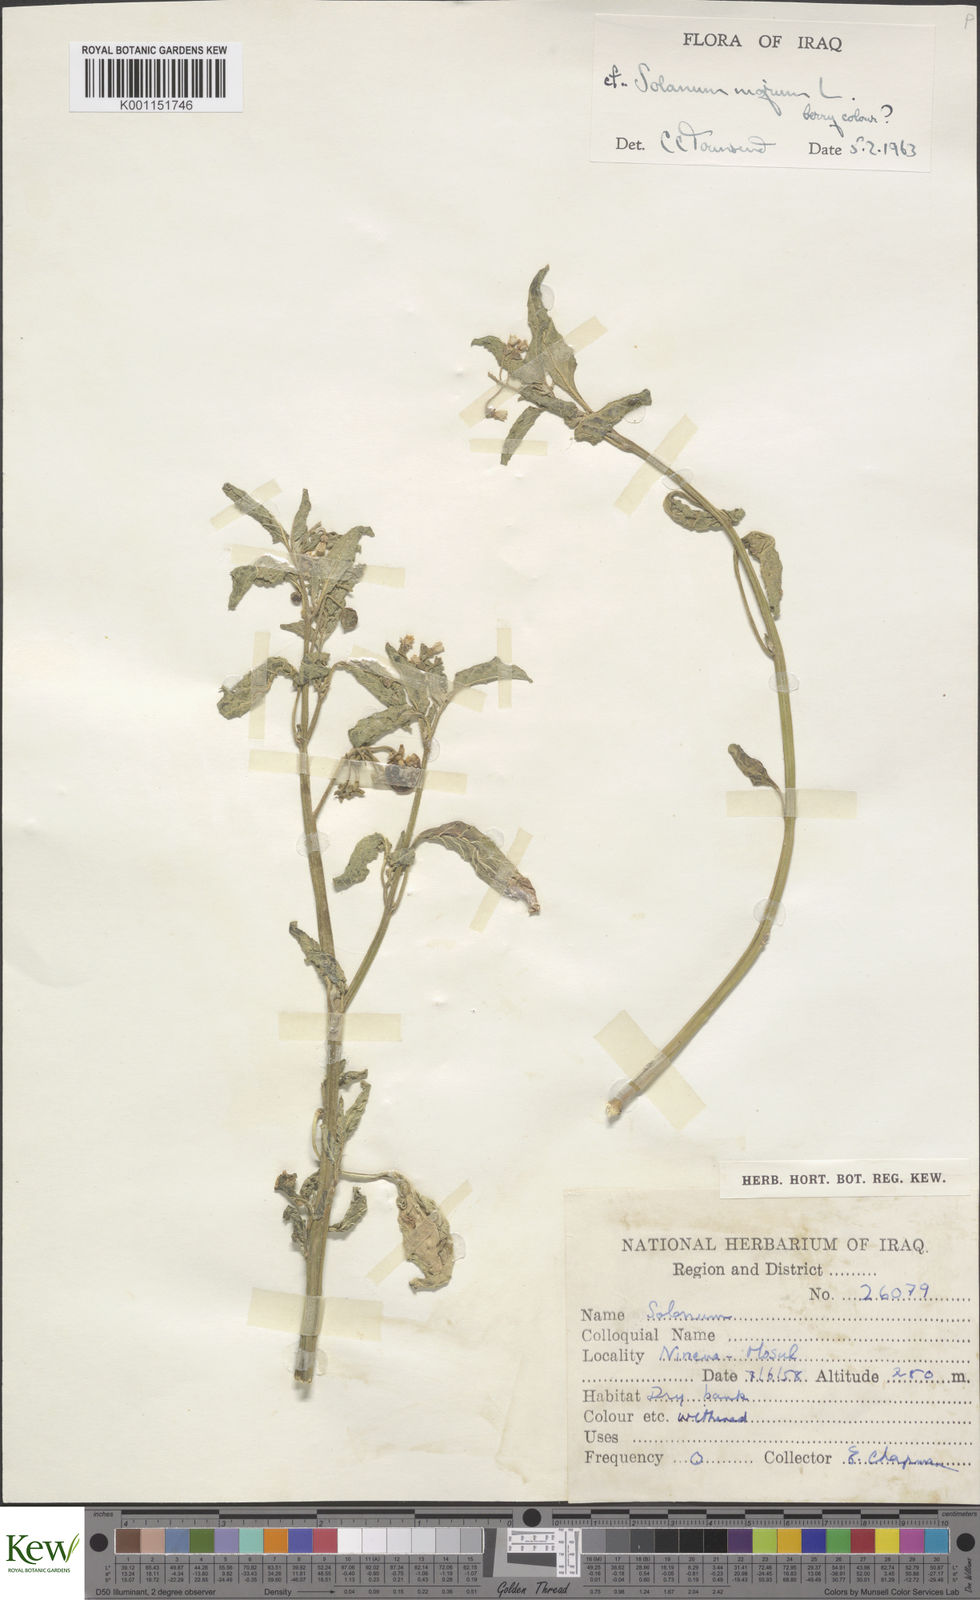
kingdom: Plantae
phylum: Tracheophyta
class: Magnoliopsida
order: Solanales
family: Solanaceae
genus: Solanum
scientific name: Solanum nigrum
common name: Black nightshade
